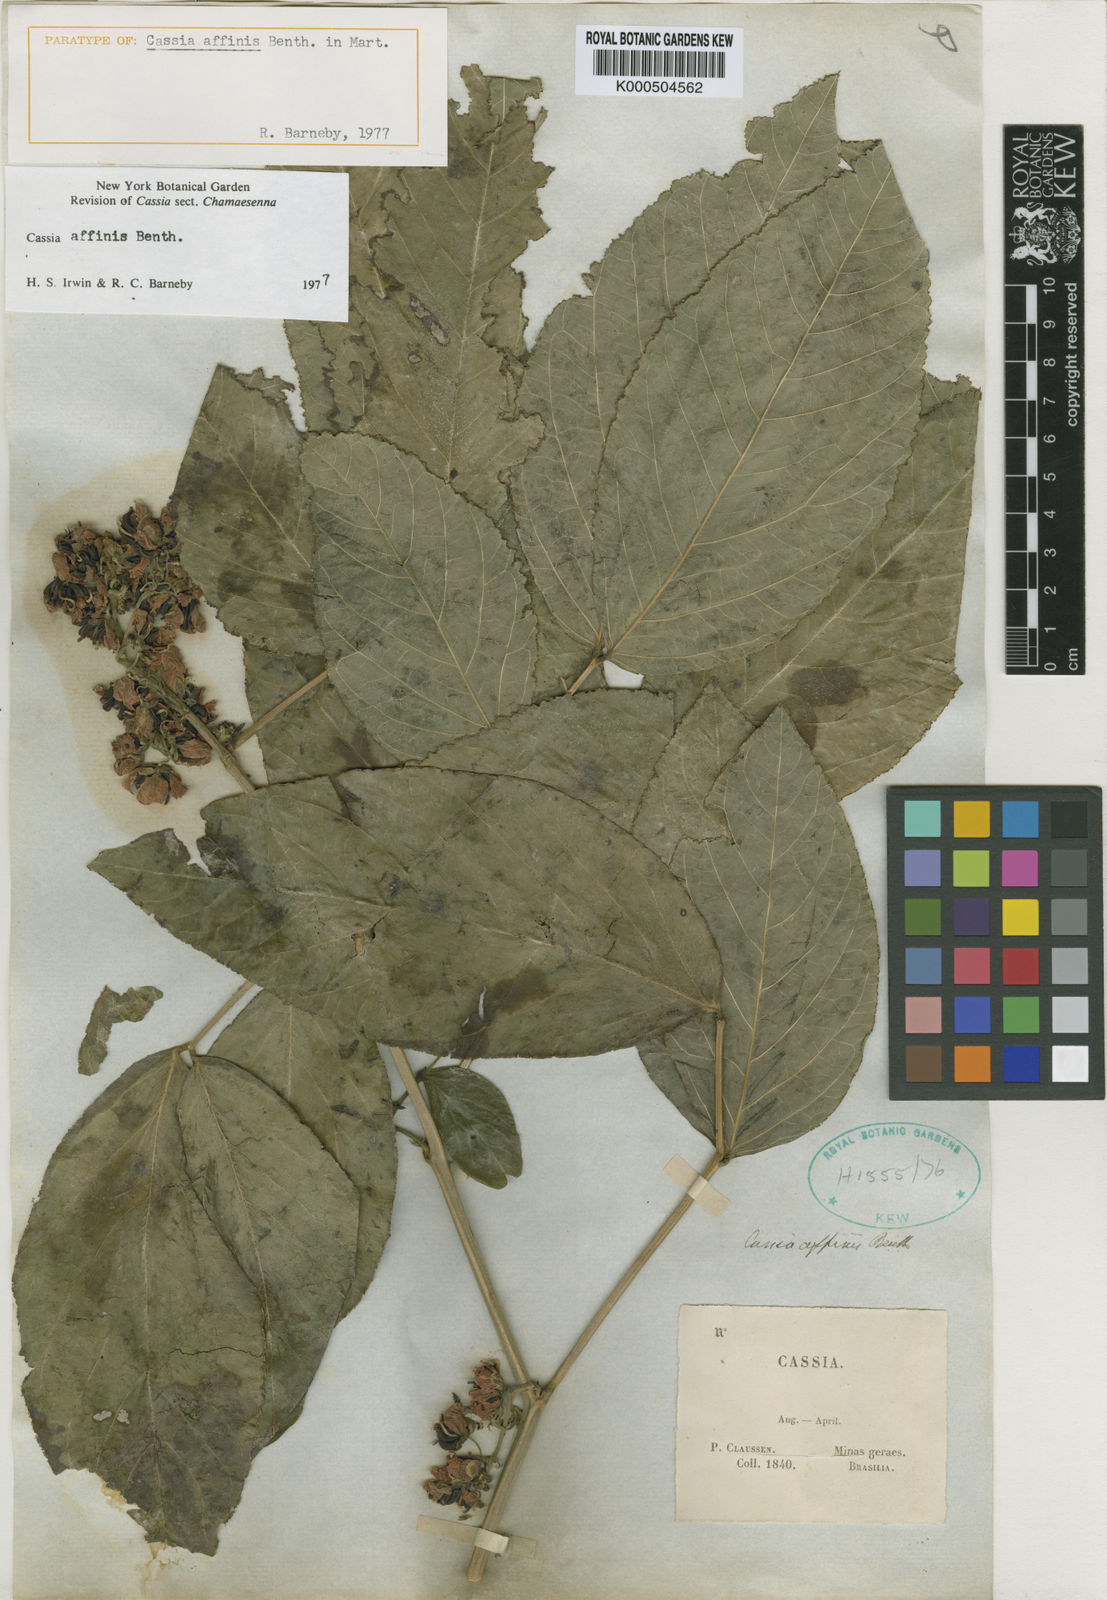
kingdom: Plantae
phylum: Tracheophyta
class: Magnoliopsida
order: Fabales
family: Fabaceae
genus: Senna
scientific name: Senna affinis
